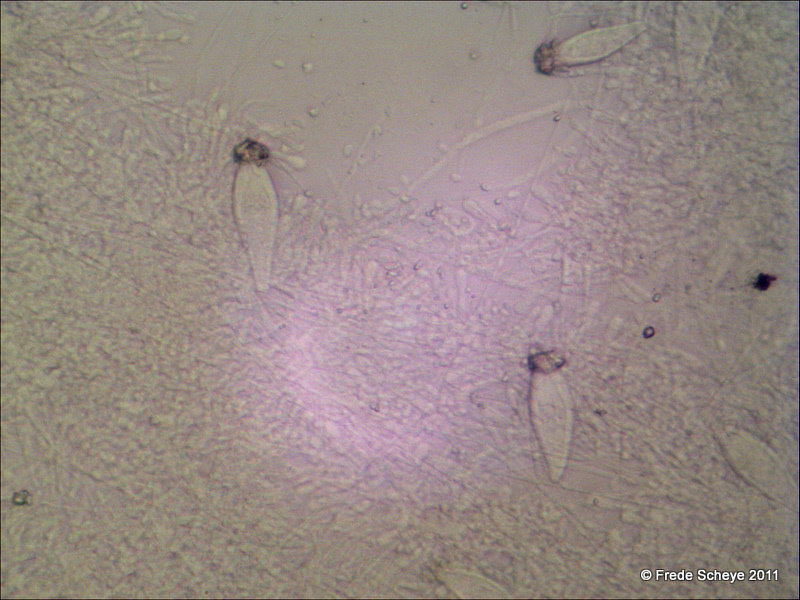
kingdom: Fungi
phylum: Basidiomycota
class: Agaricomycetes
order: Agaricales
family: Physalacriaceae
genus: Strobilurus
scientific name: Strobilurus esculentus
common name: gran-koglehat
